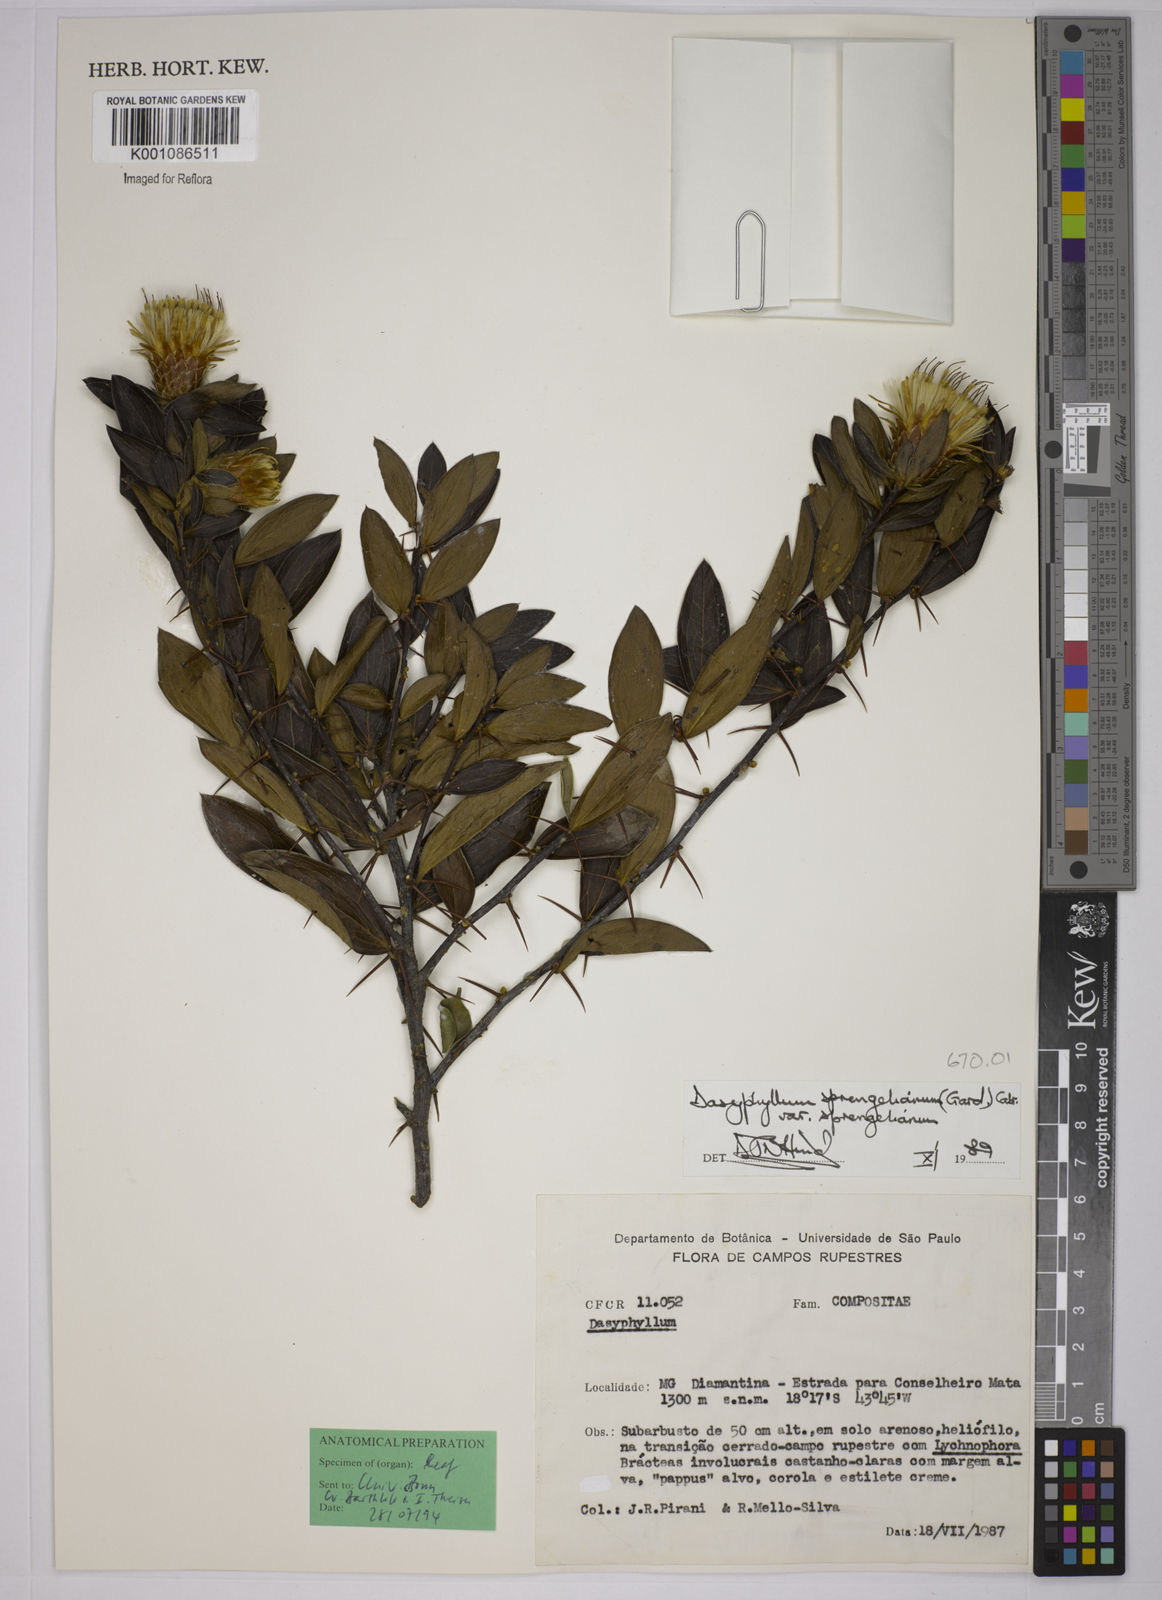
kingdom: Plantae
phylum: Tracheophyta
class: Magnoliopsida
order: Asterales
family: Asteraceae
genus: Dasyphyllum
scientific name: Dasyphyllum sprengelianum
